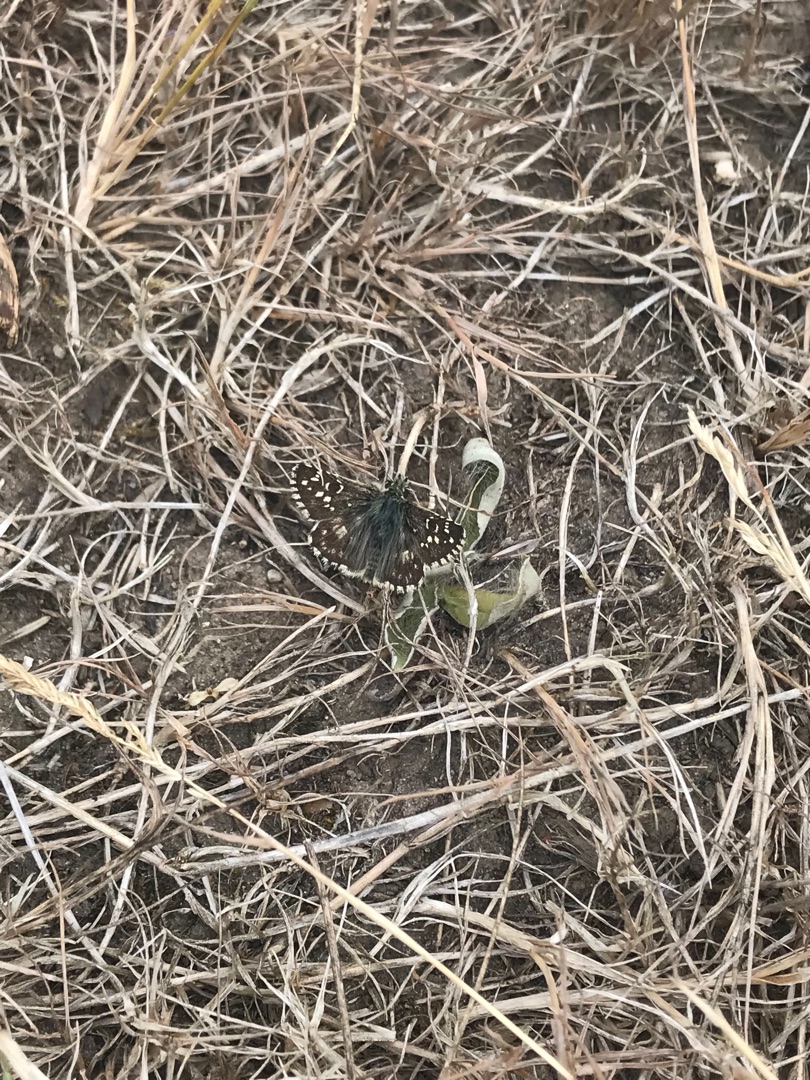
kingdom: Animalia
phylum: Arthropoda
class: Insecta
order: Lepidoptera
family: Hesperiidae
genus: Pyrgus
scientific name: Pyrgus armoricanus
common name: Fransk bredpande
